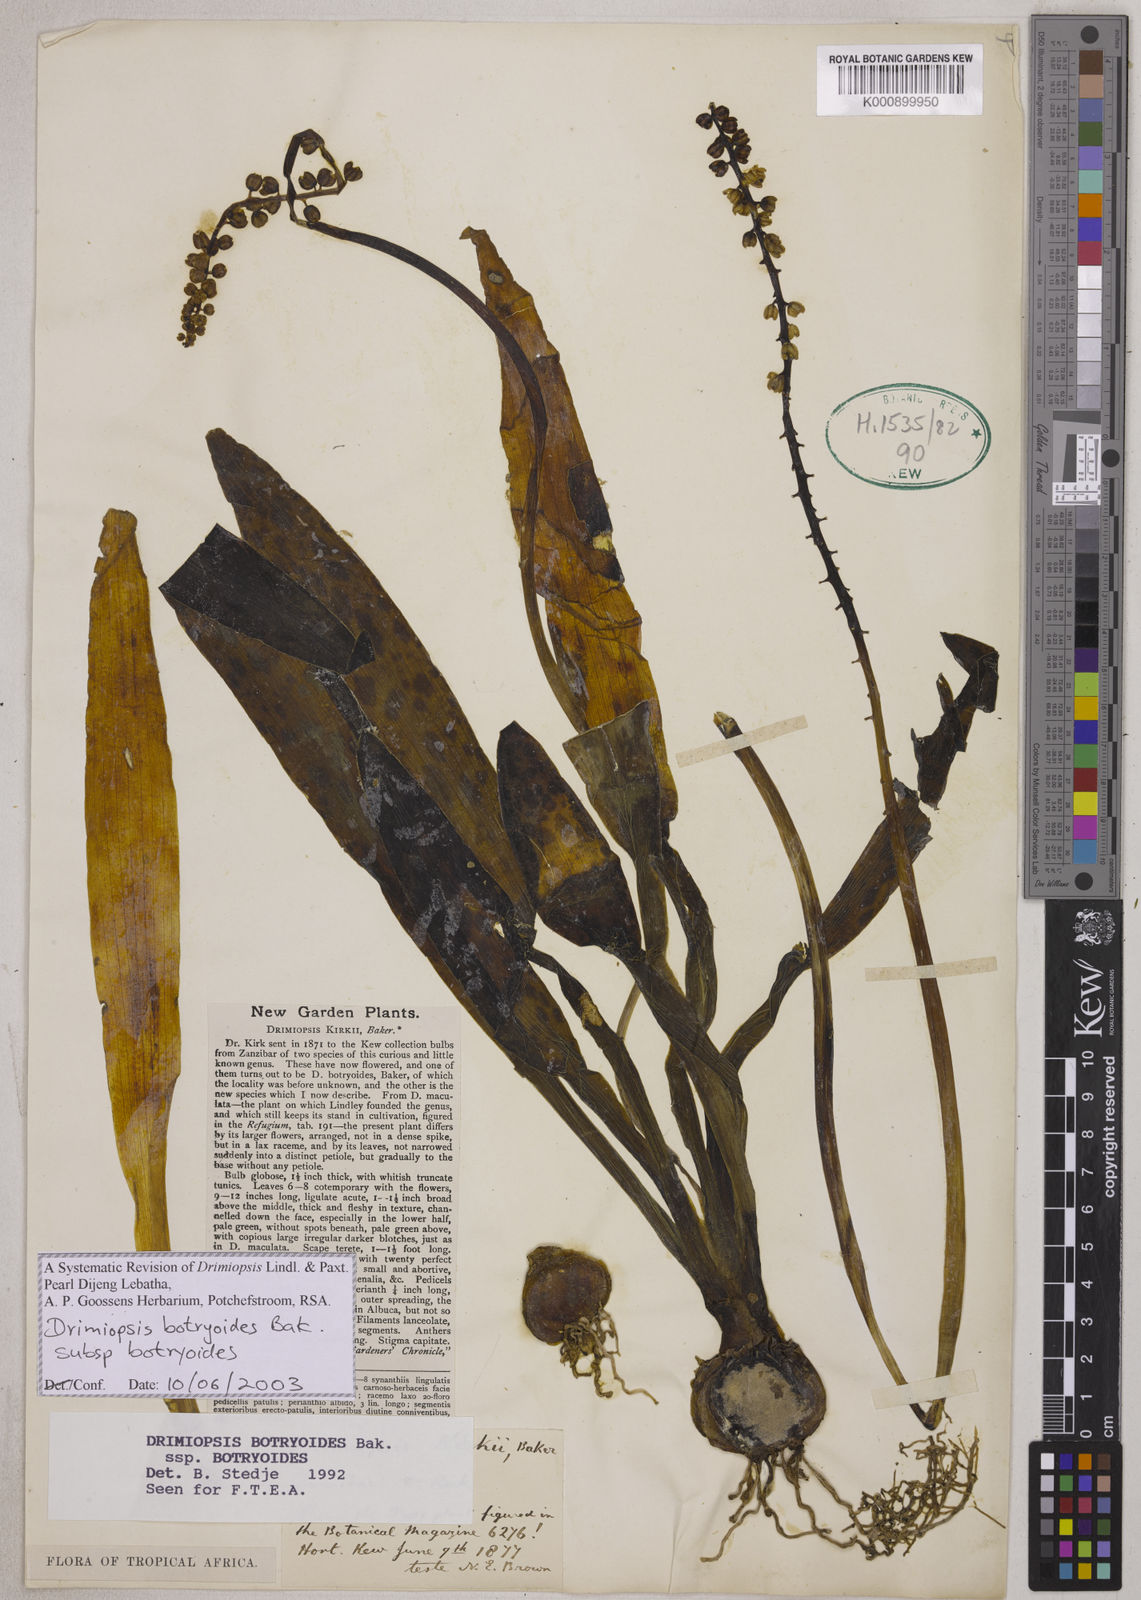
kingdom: Plantae
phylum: Tracheophyta
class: Liliopsida
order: Asparagales
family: Asparagaceae
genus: Drimiopsis
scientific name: Drimiopsis botryoides
